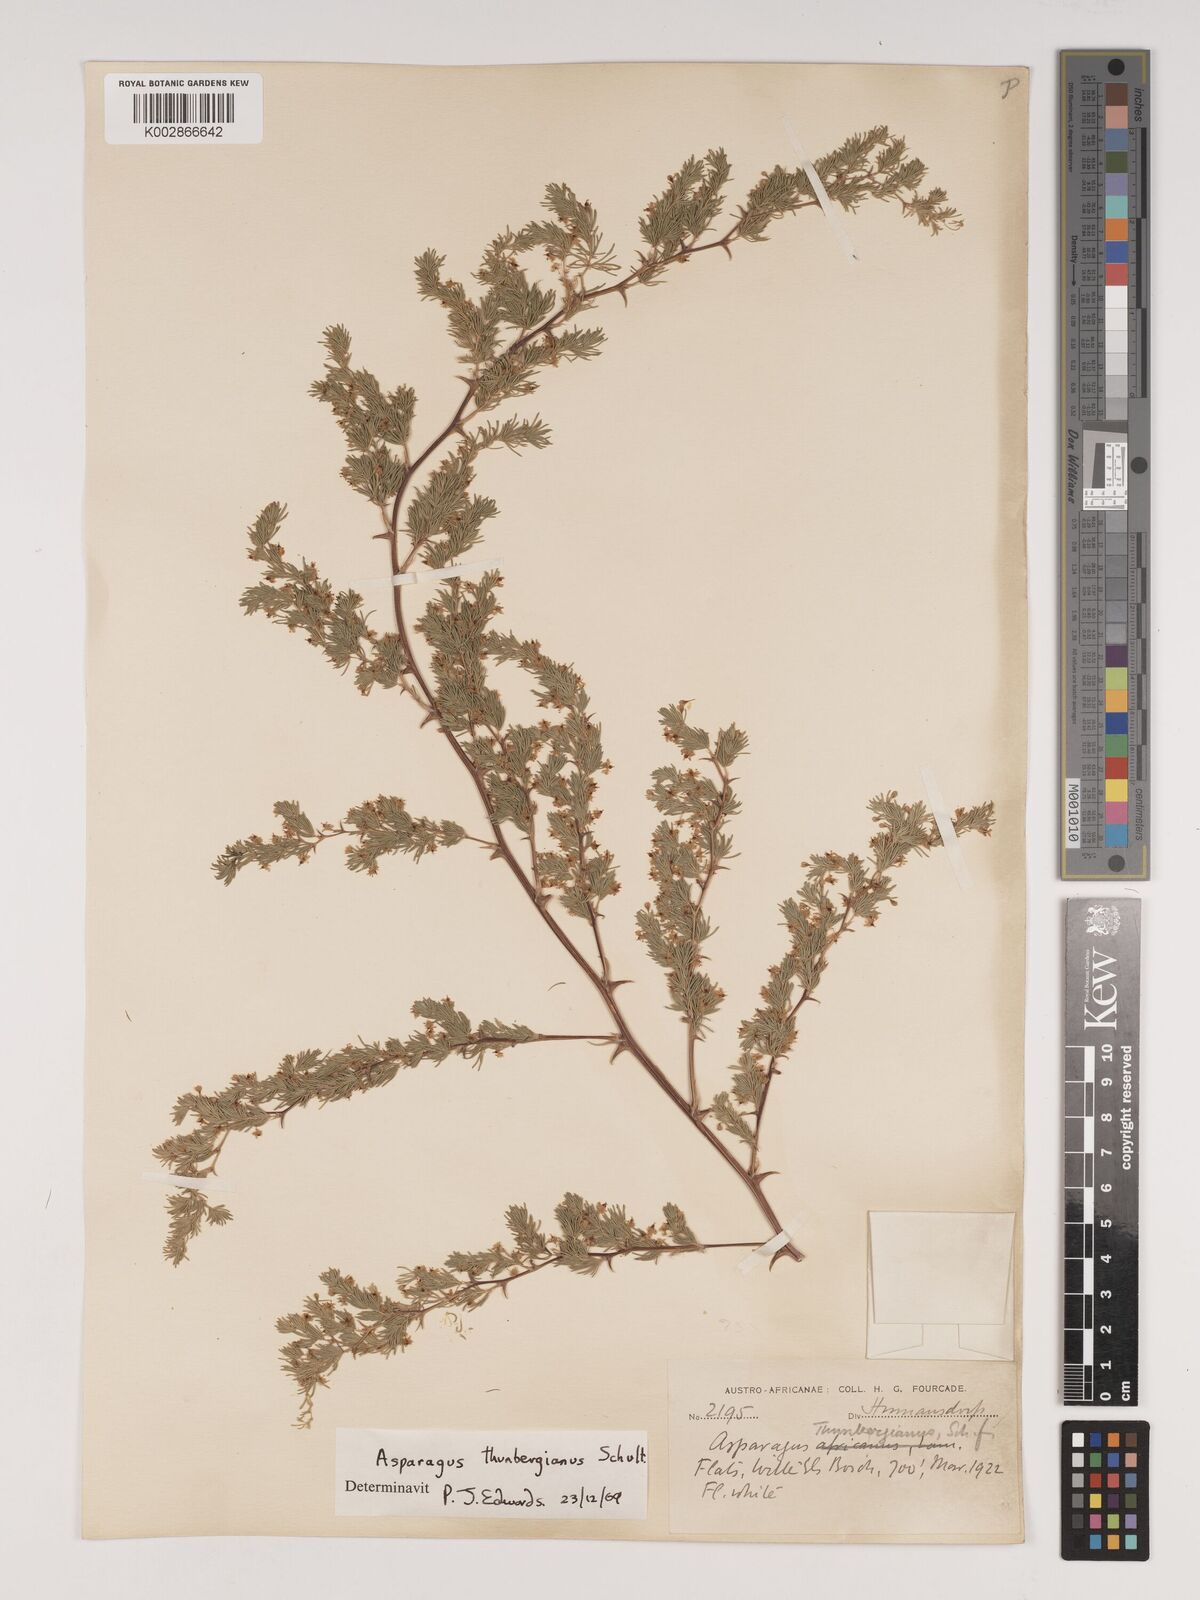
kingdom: Plantae
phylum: Tracheophyta
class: Liliopsida
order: Asparagales
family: Asparagaceae
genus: Asparagus
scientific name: Asparagus rubicundus
